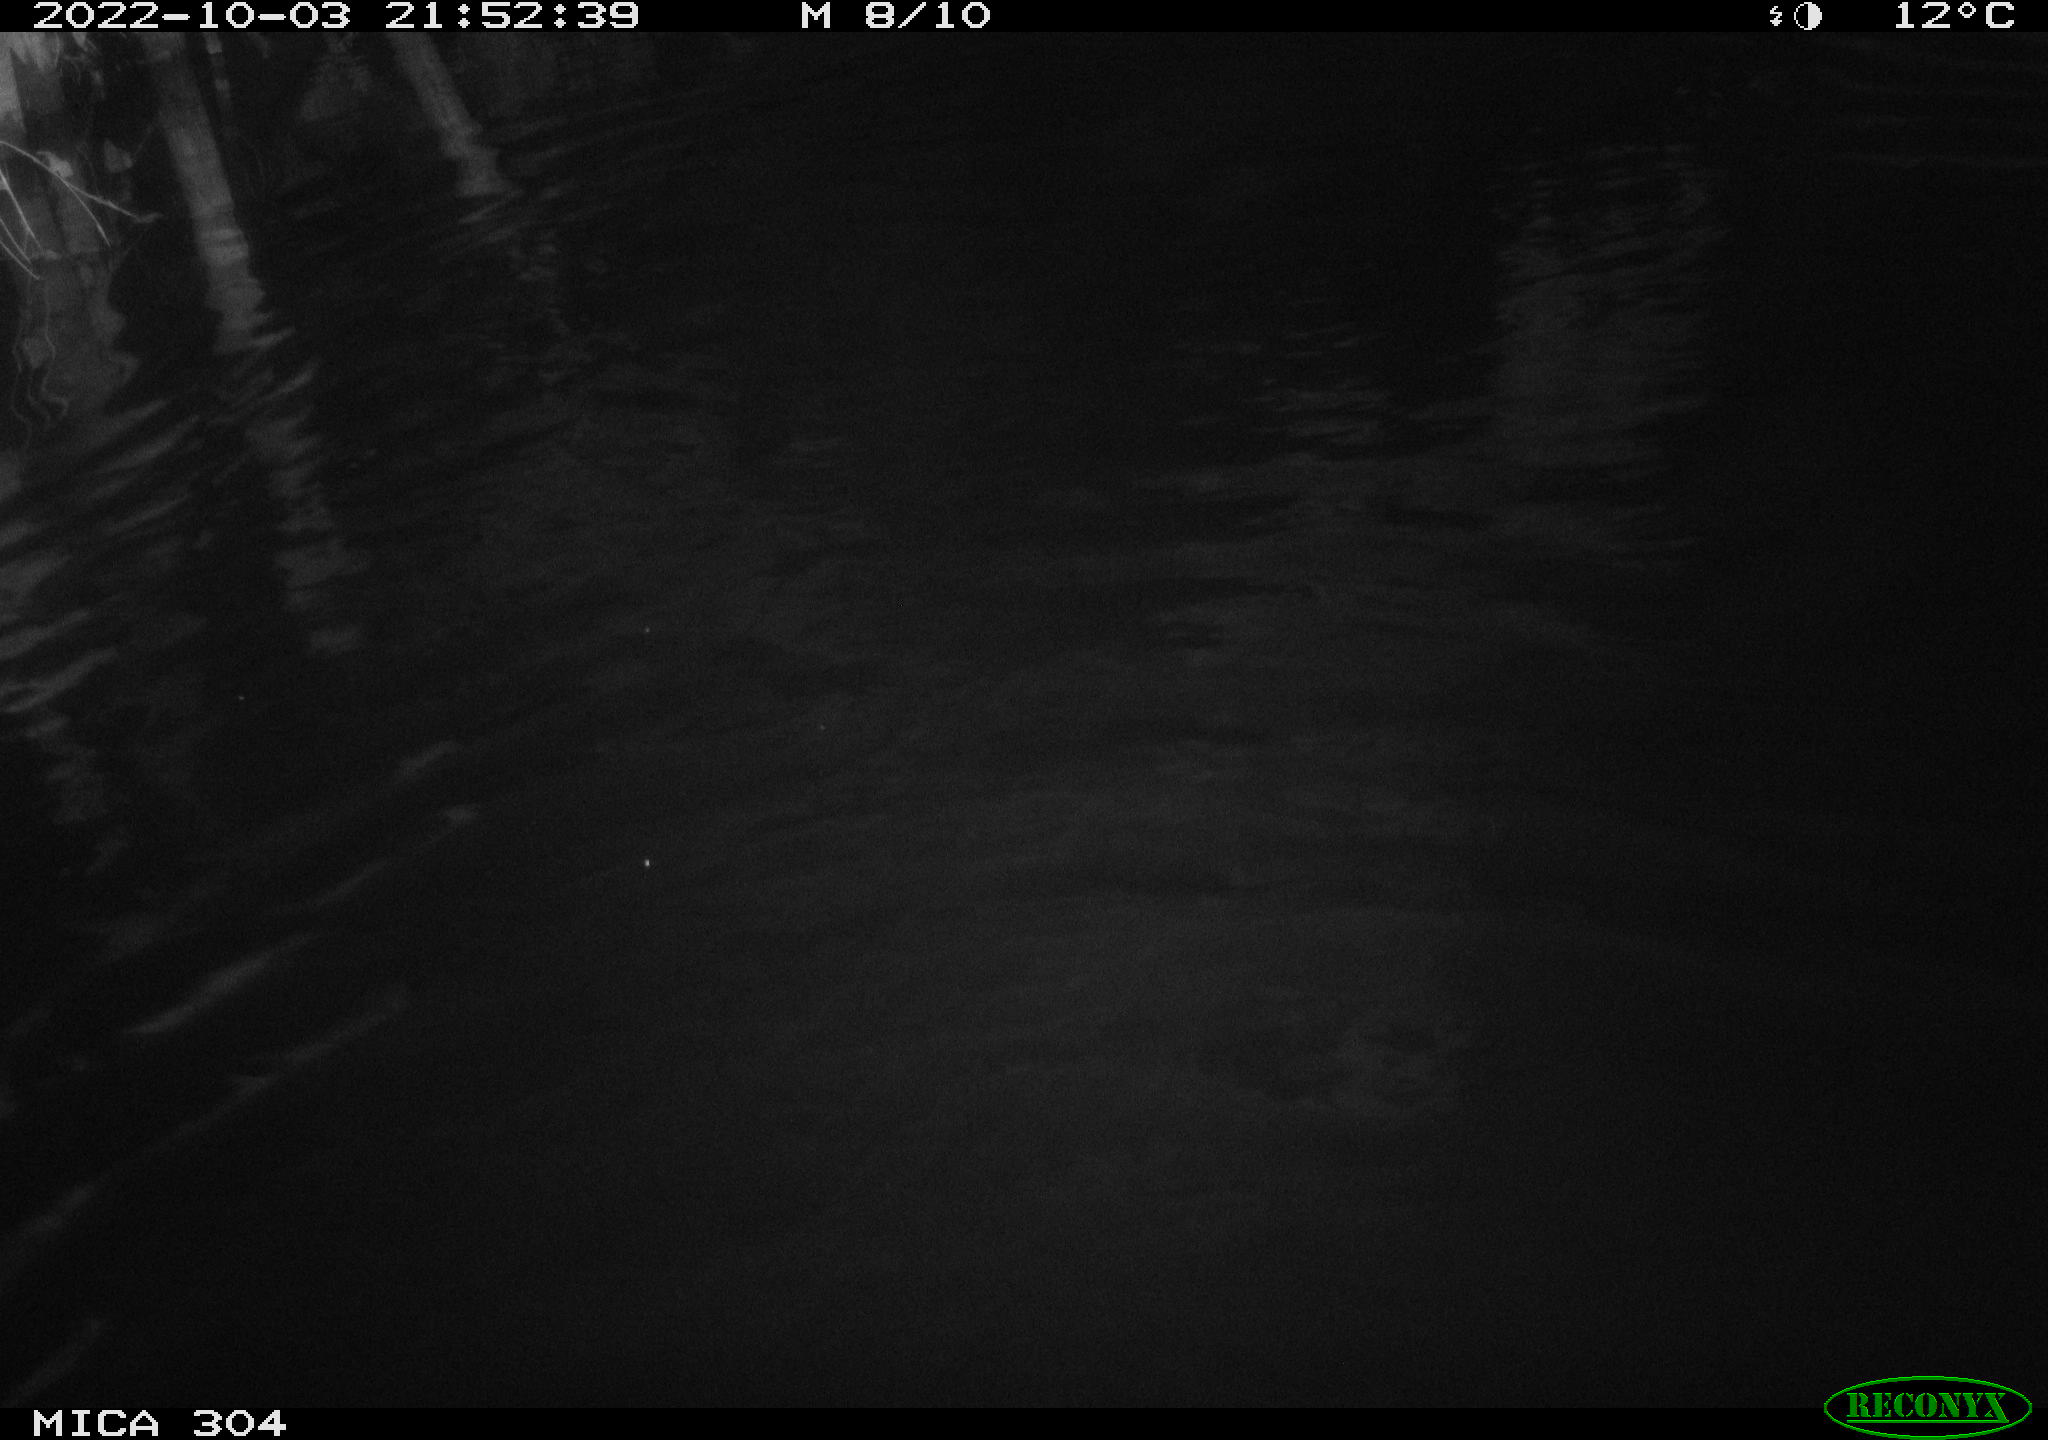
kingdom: Animalia
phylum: Chordata
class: Mammalia
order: Rodentia
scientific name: Rodentia
